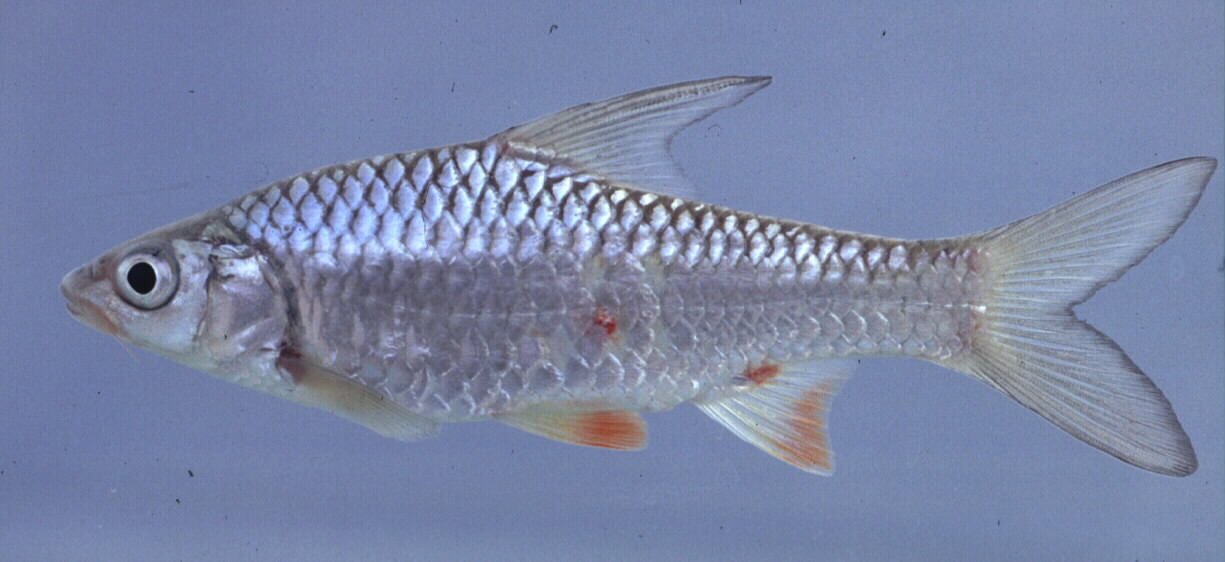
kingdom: Animalia
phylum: Chordata
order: Cypriniformes
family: Cyprinidae
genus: Enteromius
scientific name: Enteromius mattozi
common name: Papermouth
